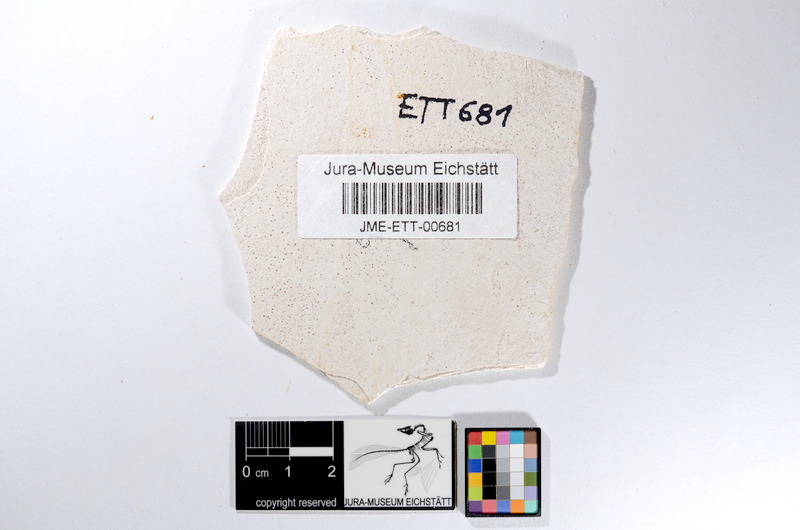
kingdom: Animalia
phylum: Chordata
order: Salmoniformes
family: Orthogonikleithridae
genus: Orthogonikleithrus
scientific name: Orthogonikleithrus hoelli
